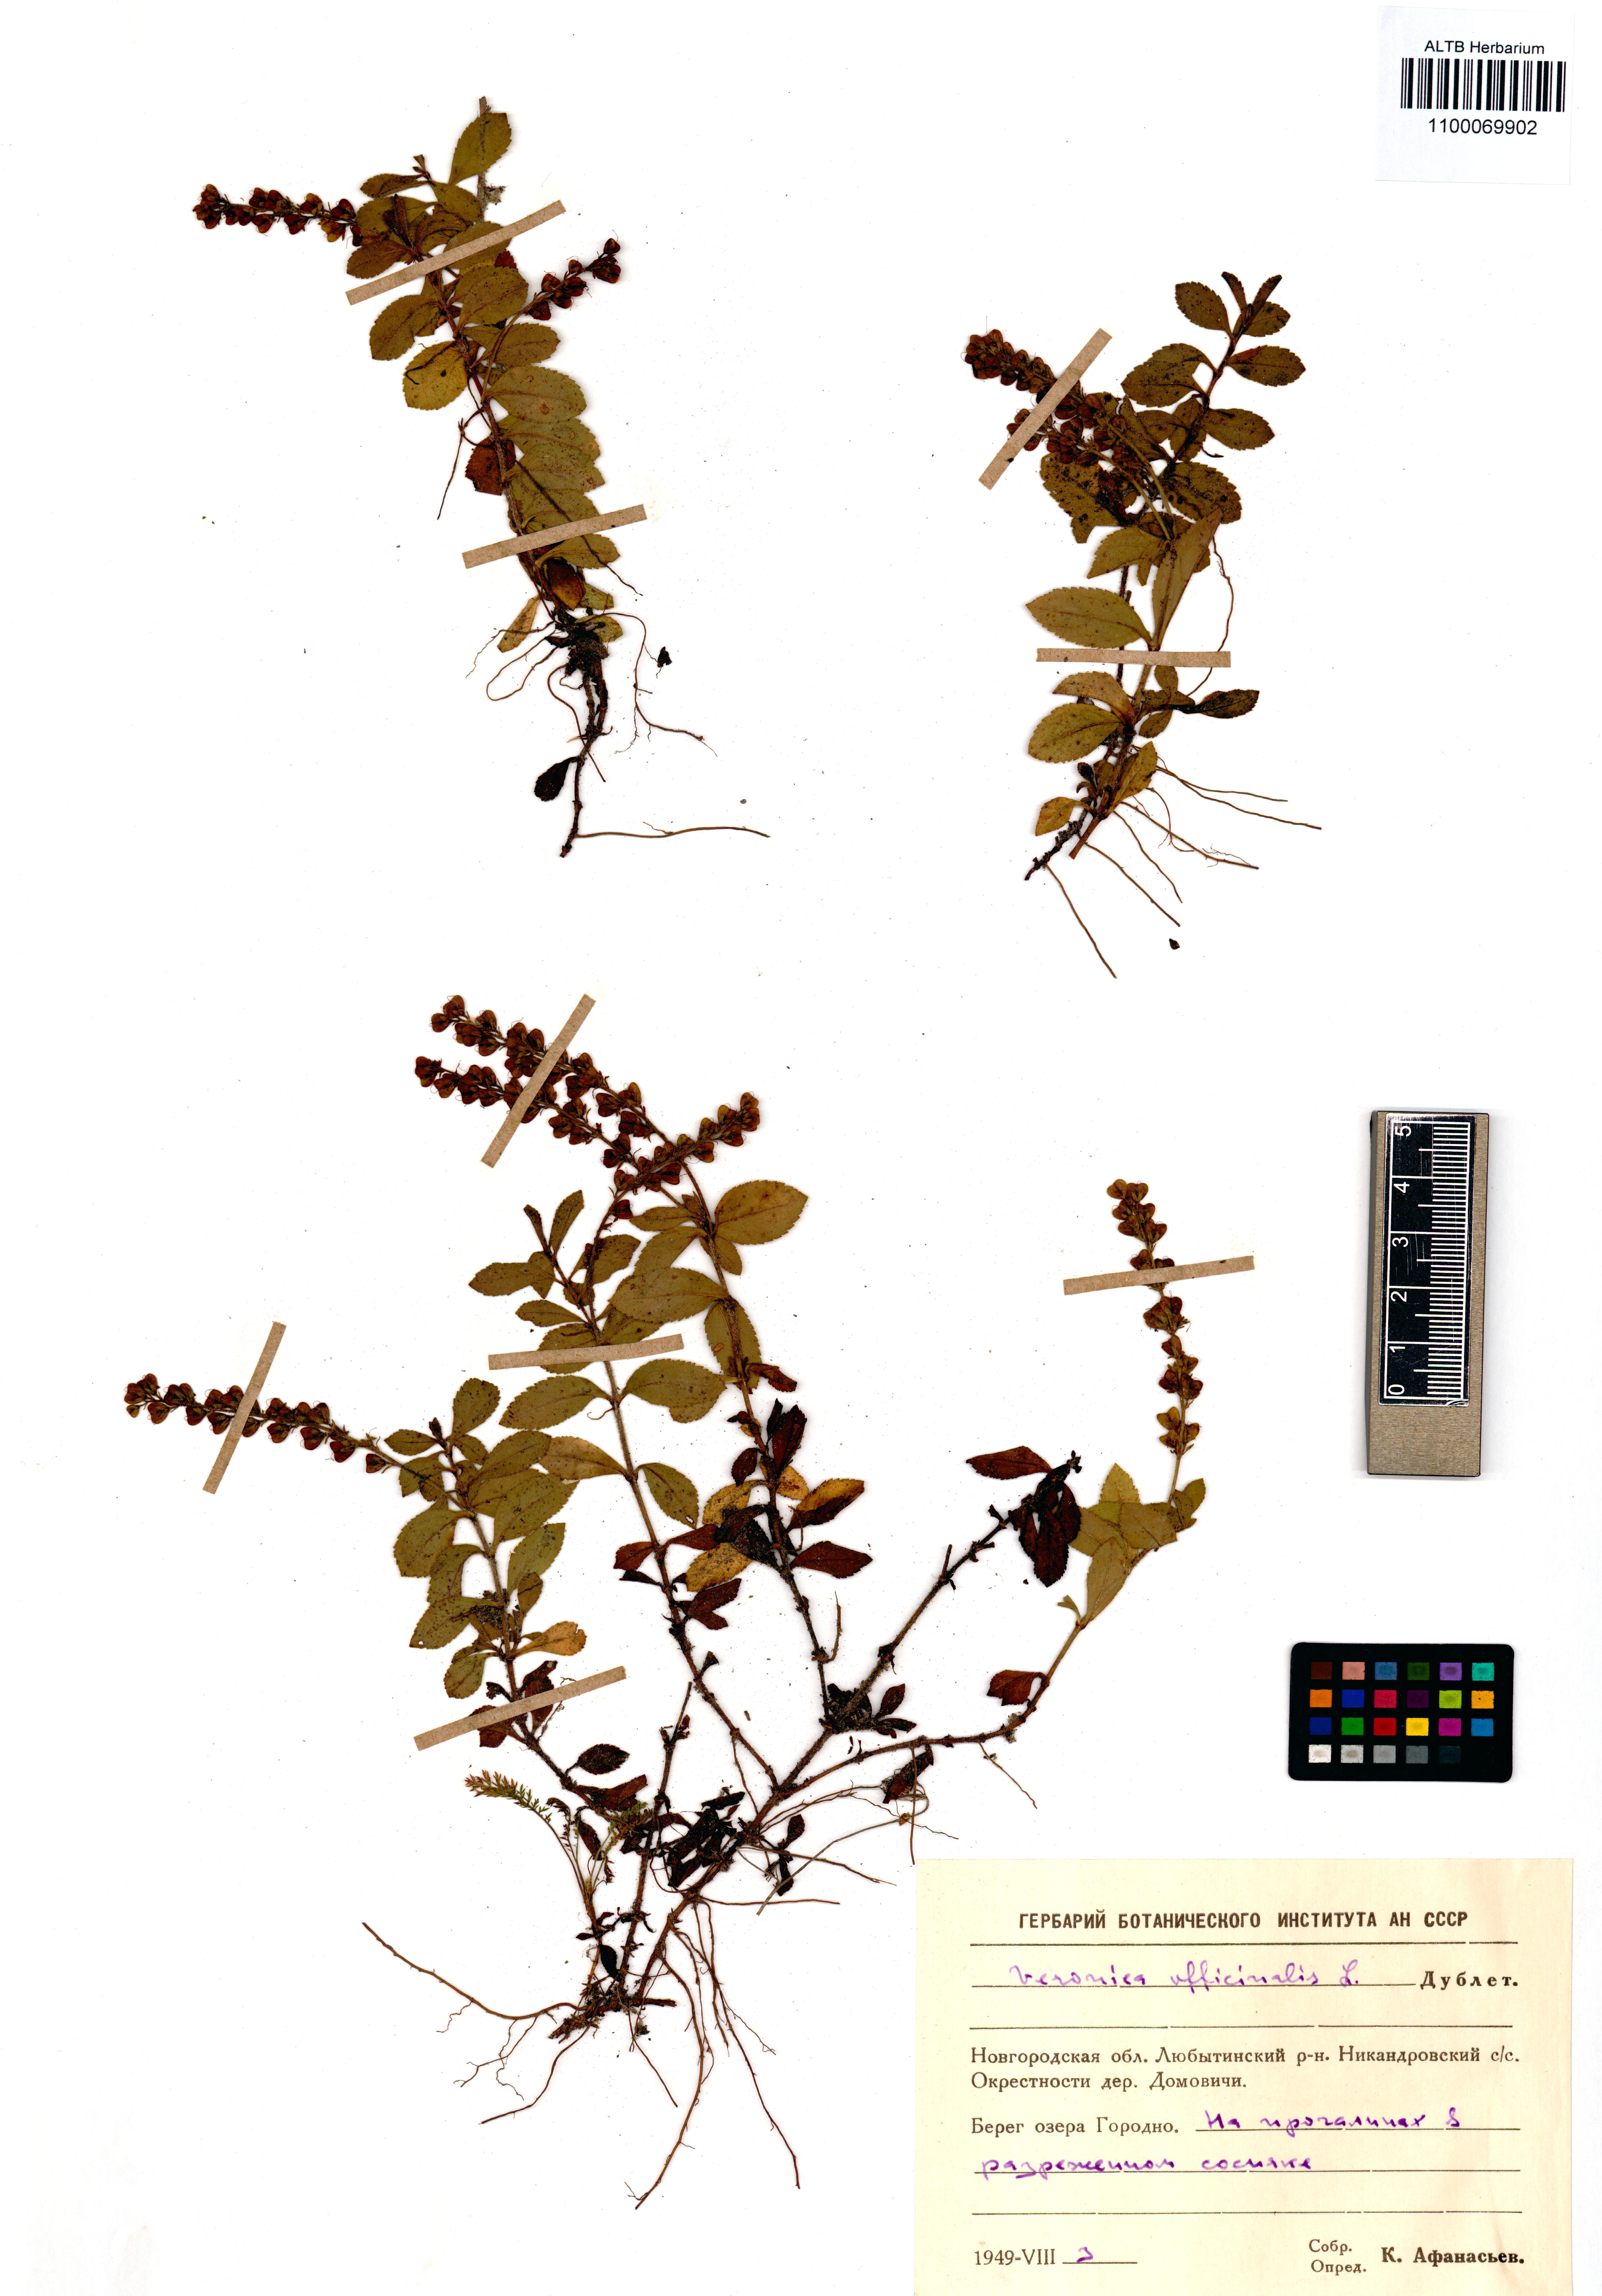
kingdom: Plantae
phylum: Tracheophyta
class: Magnoliopsida
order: Lamiales
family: Plantaginaceae
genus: Veronica
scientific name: Veronica officinalis
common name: Common speedwell
